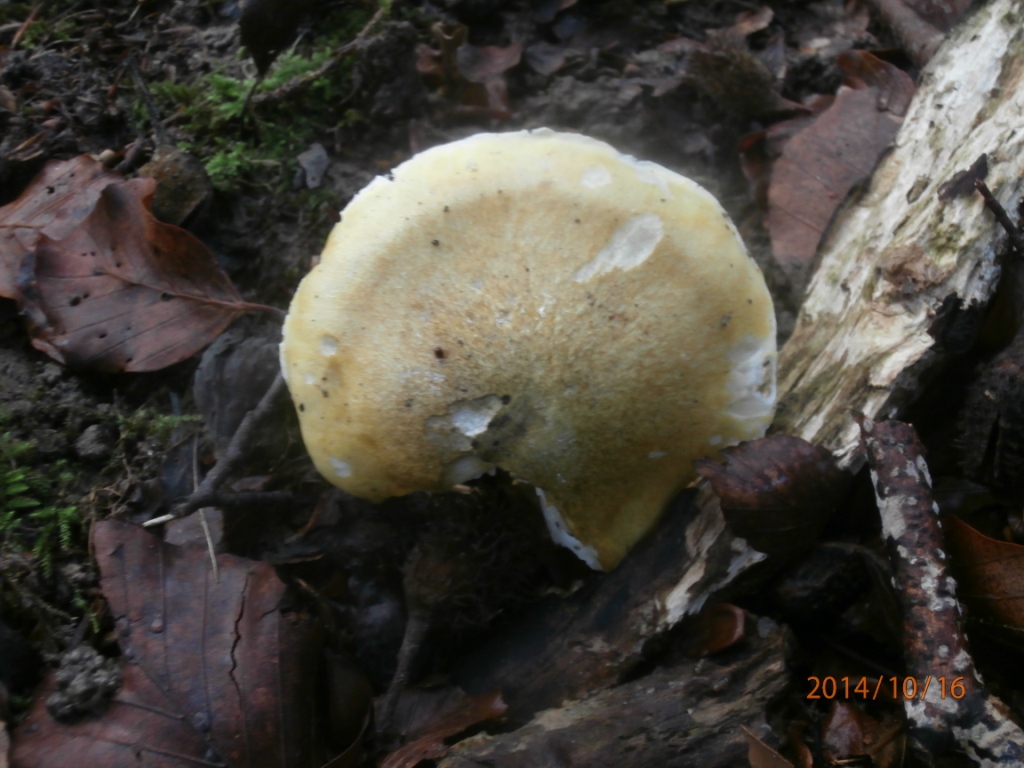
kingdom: Fungi
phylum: Basidiomycota
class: Agaricomycetes
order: Agaricales
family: Tricholomataceae
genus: Tricholoma
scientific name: Tricholoma sejunctum
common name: grøngul ridderhat
